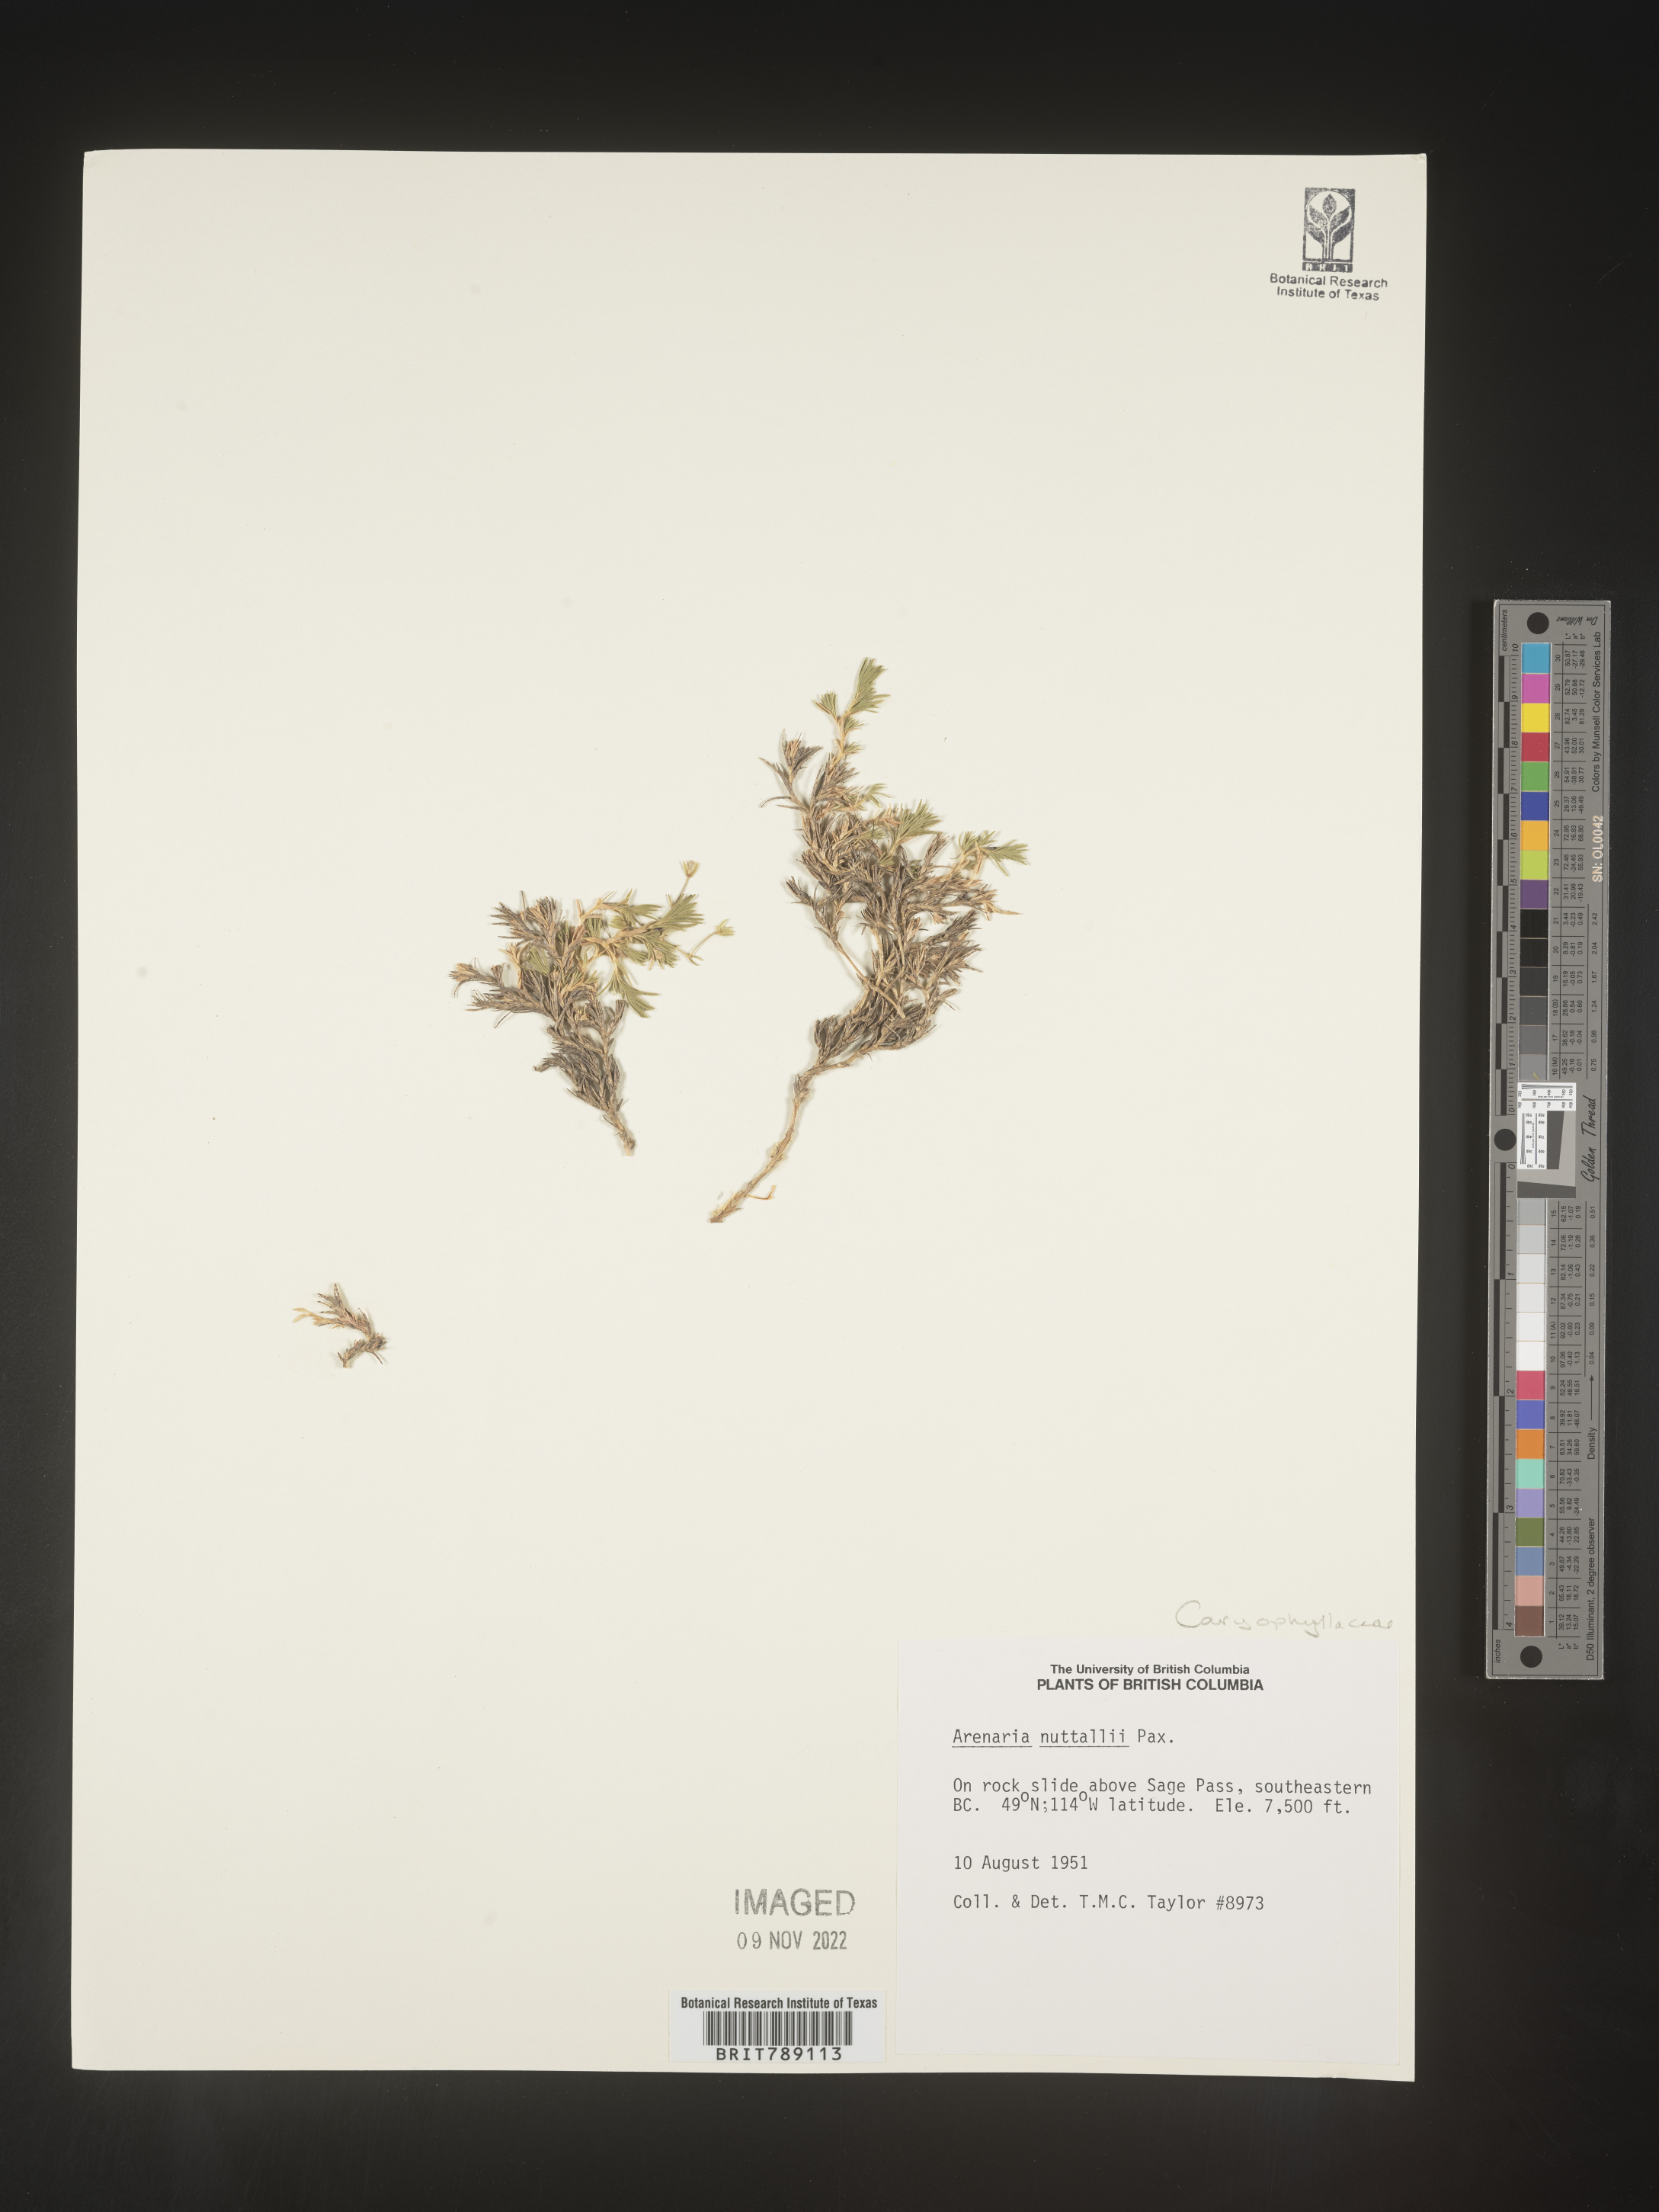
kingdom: Plantae
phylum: Tracheophyta
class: Magnoliopsida
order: Caryophyllales
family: Caryophyllaceae
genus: Arenaria
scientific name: Arenaria
